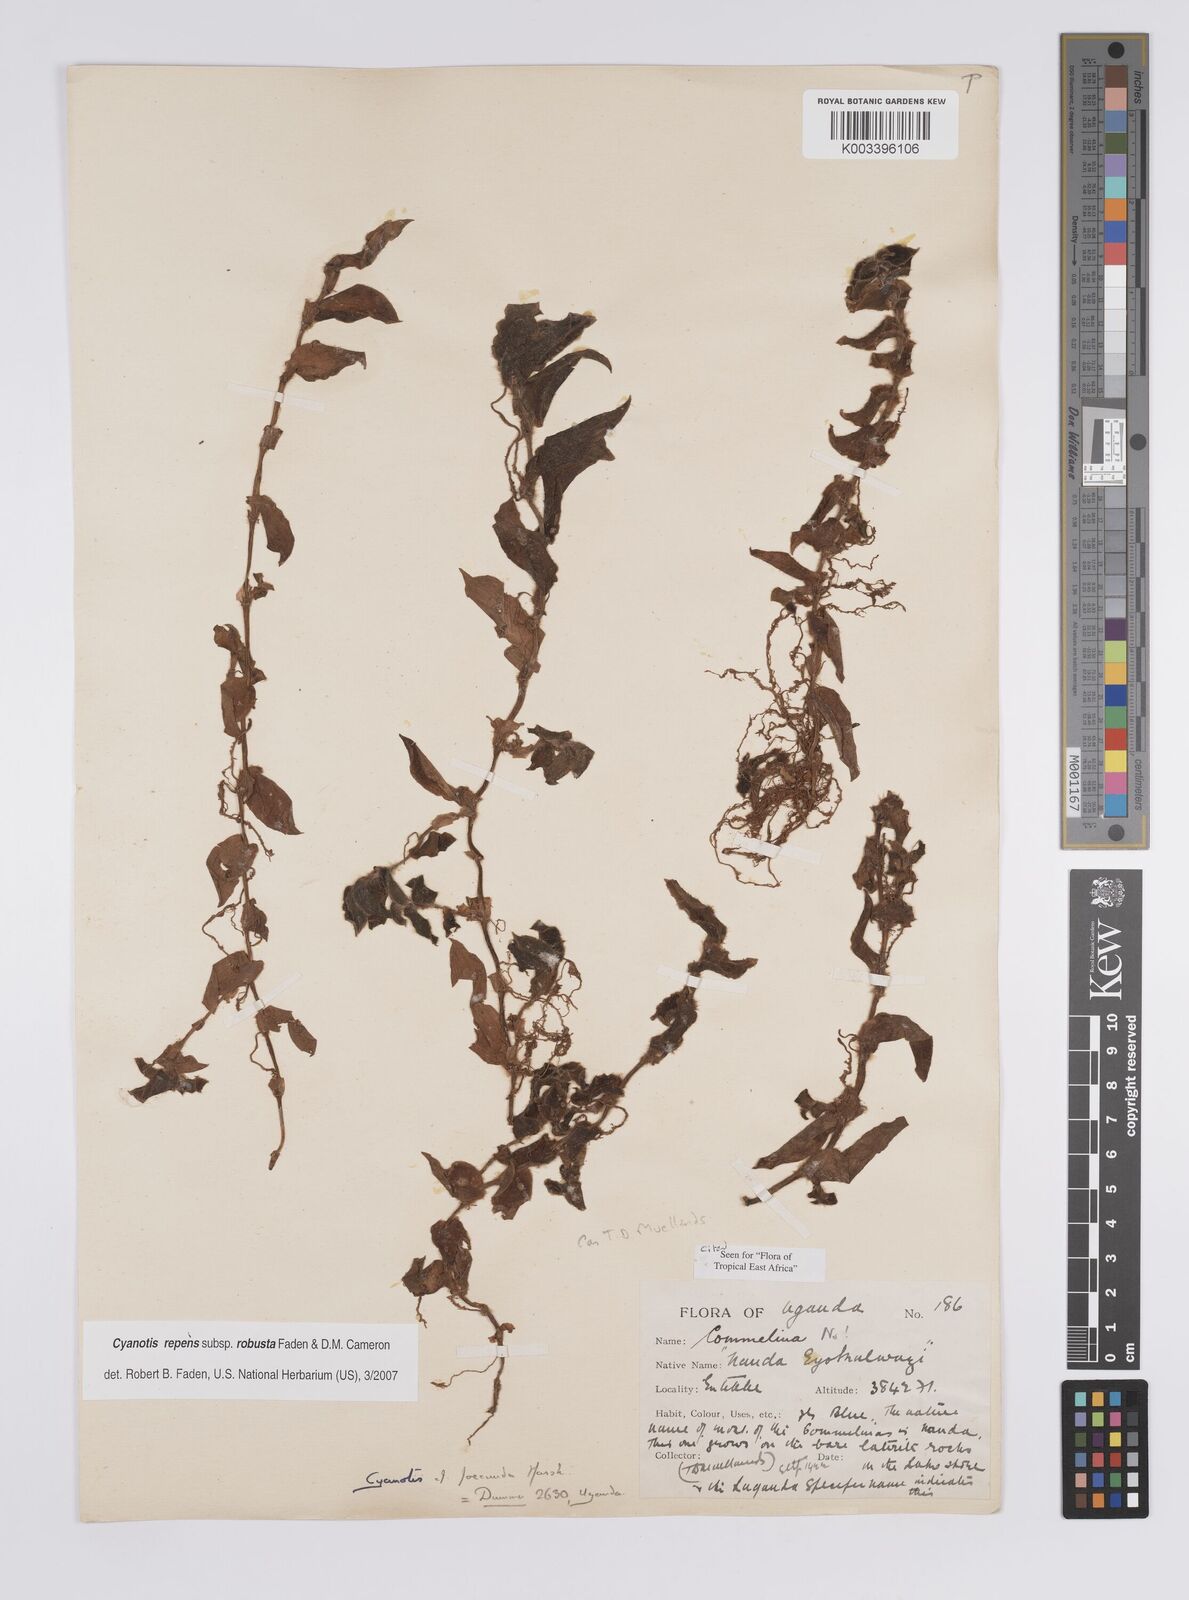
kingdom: Plantae
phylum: Tracheophyta
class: Liliopsida
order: Commelinales
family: Commelinaceae
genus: Cyanotis
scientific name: Cyanotis repens
